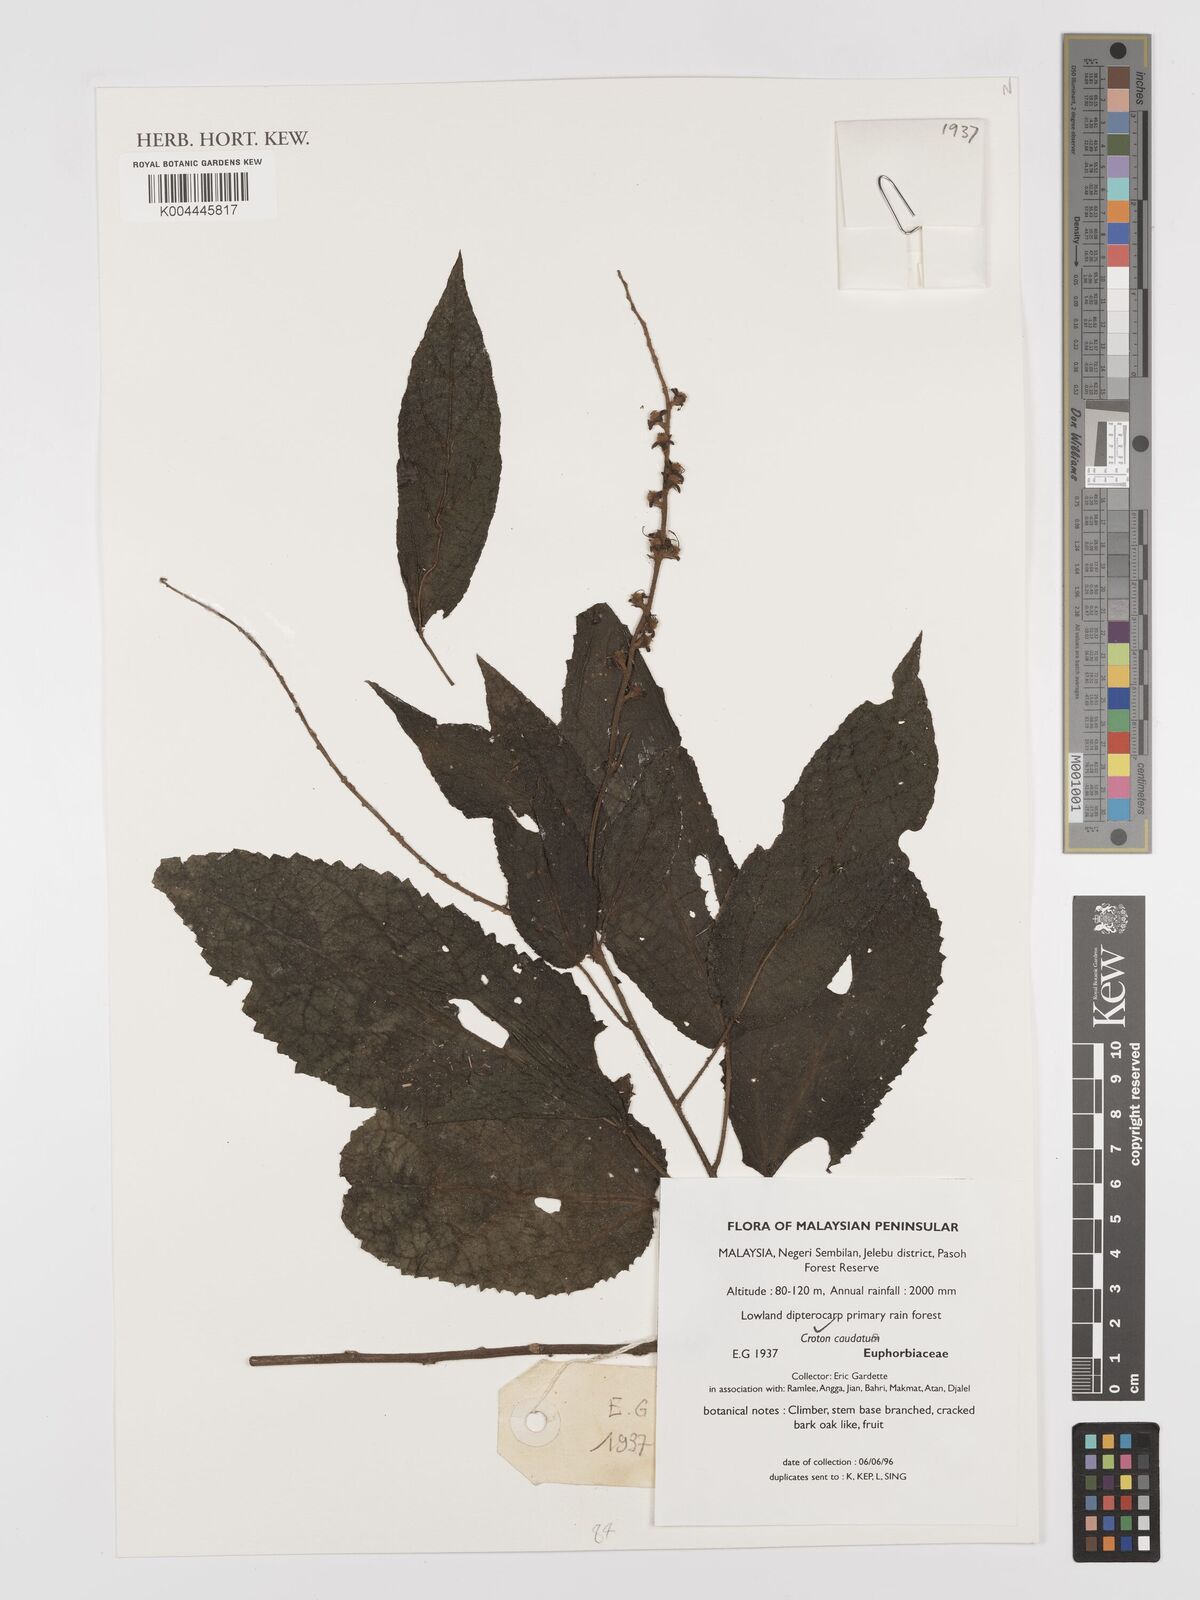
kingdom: Plantae
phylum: Tracheophyta
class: Magnoliopsida
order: Malpighiales
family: Euphorbiaceae
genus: Croton
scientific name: Croton caudatus
